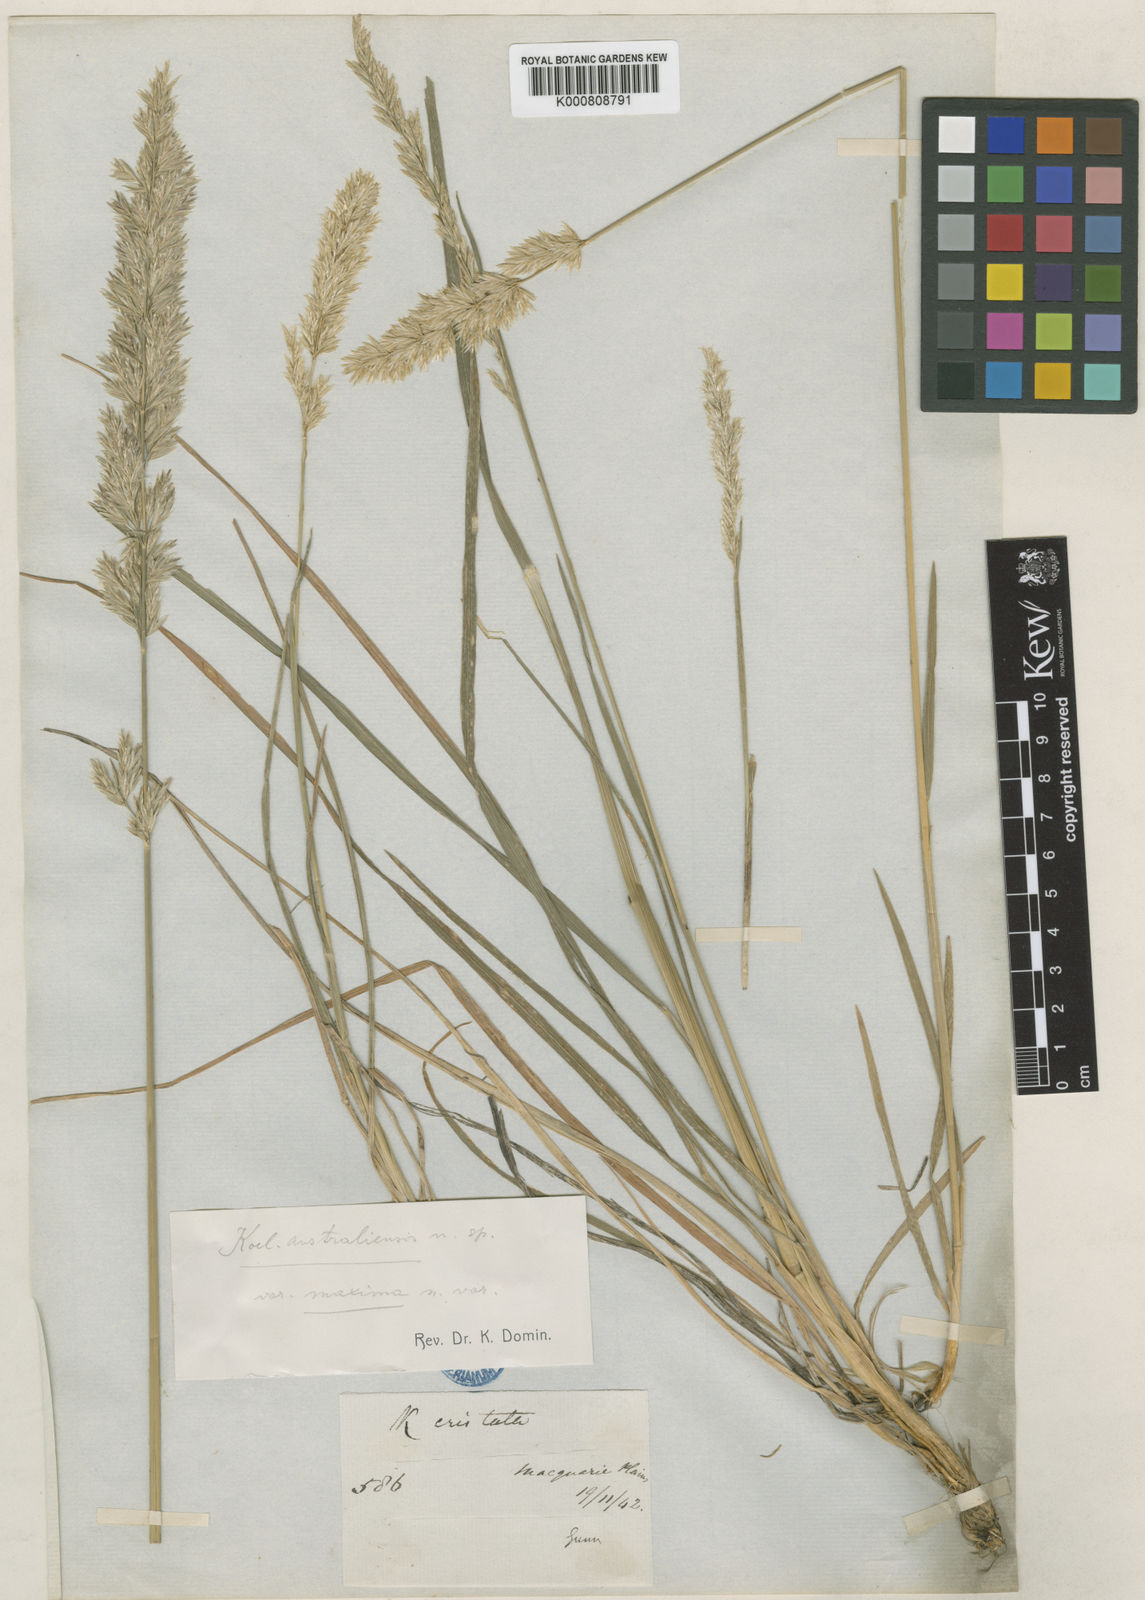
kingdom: Plantae
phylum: Tracheophyta
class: Liliopsida
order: Poales
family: Poaceae
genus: Koeleria
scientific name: Koeleria macrantha
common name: Crested hair-grass
